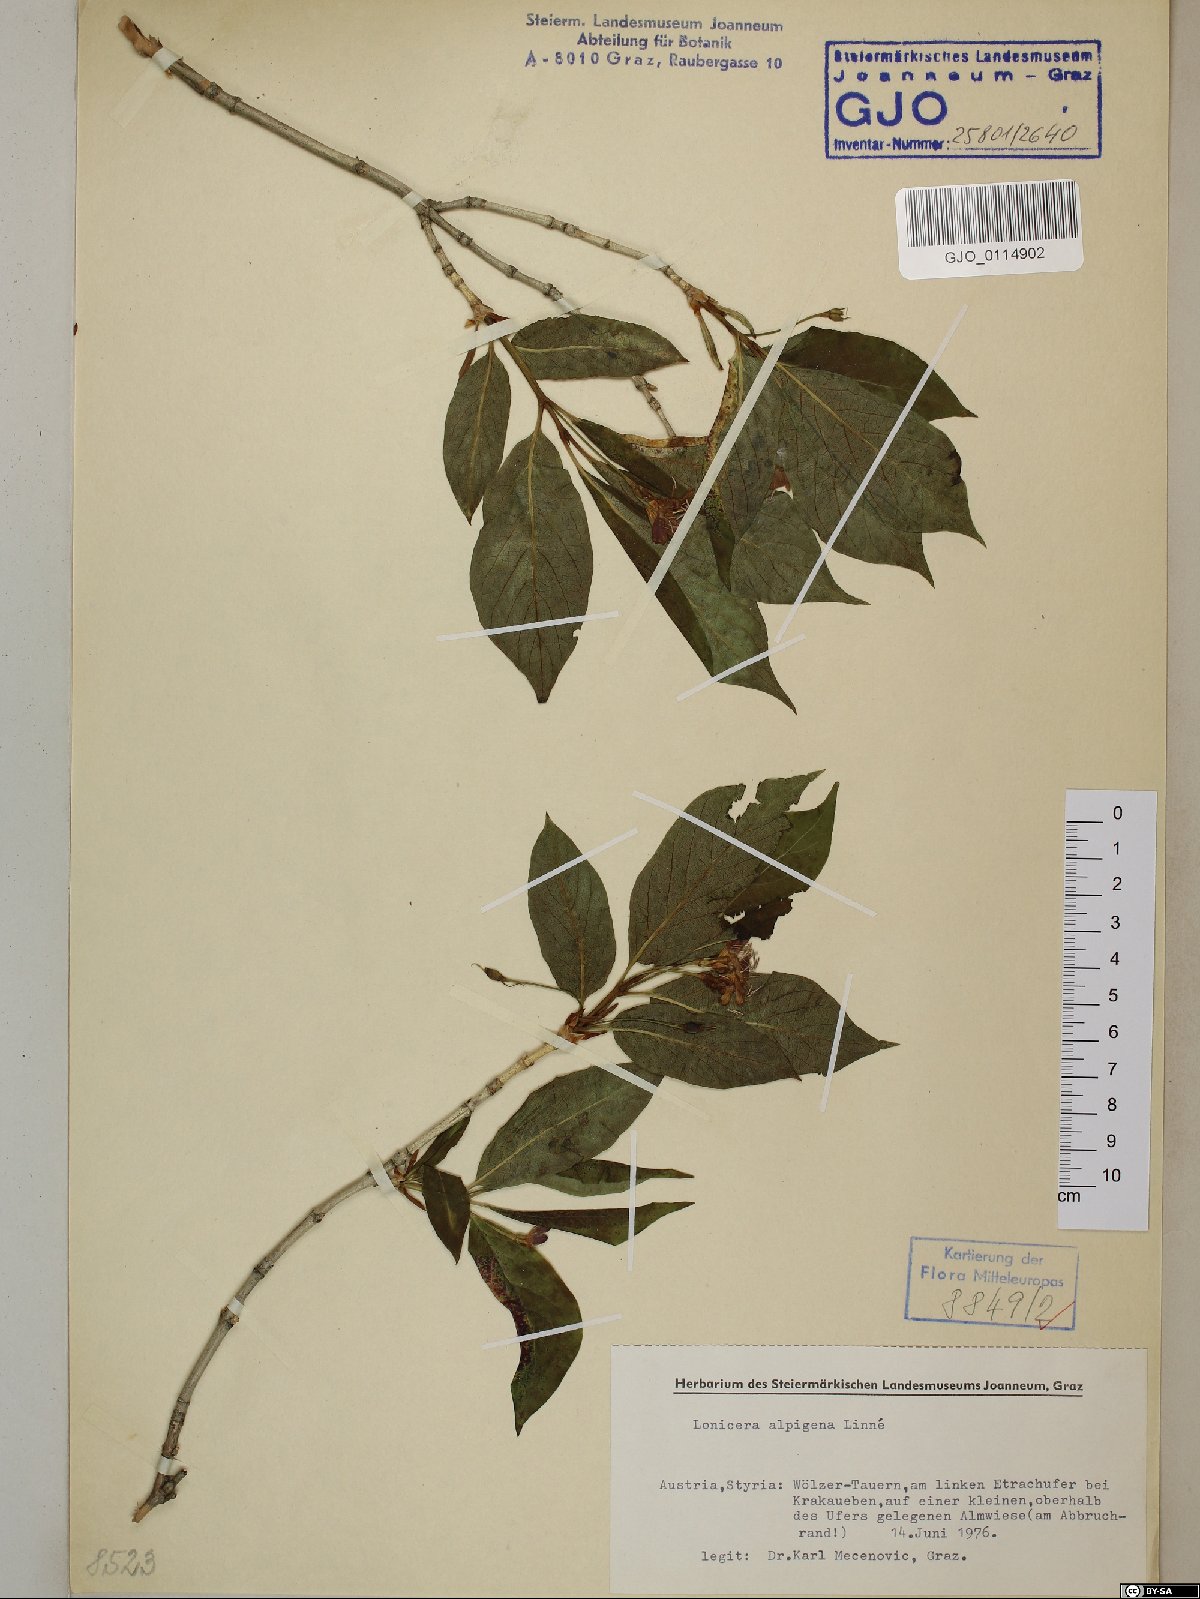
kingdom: Plantae
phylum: Tracheophyta
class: Magnoliopsida
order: Dipsacales
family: Caprifoliaceae
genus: Lonicera
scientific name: Lonicera alpigena
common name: Alpine honeysuckle
